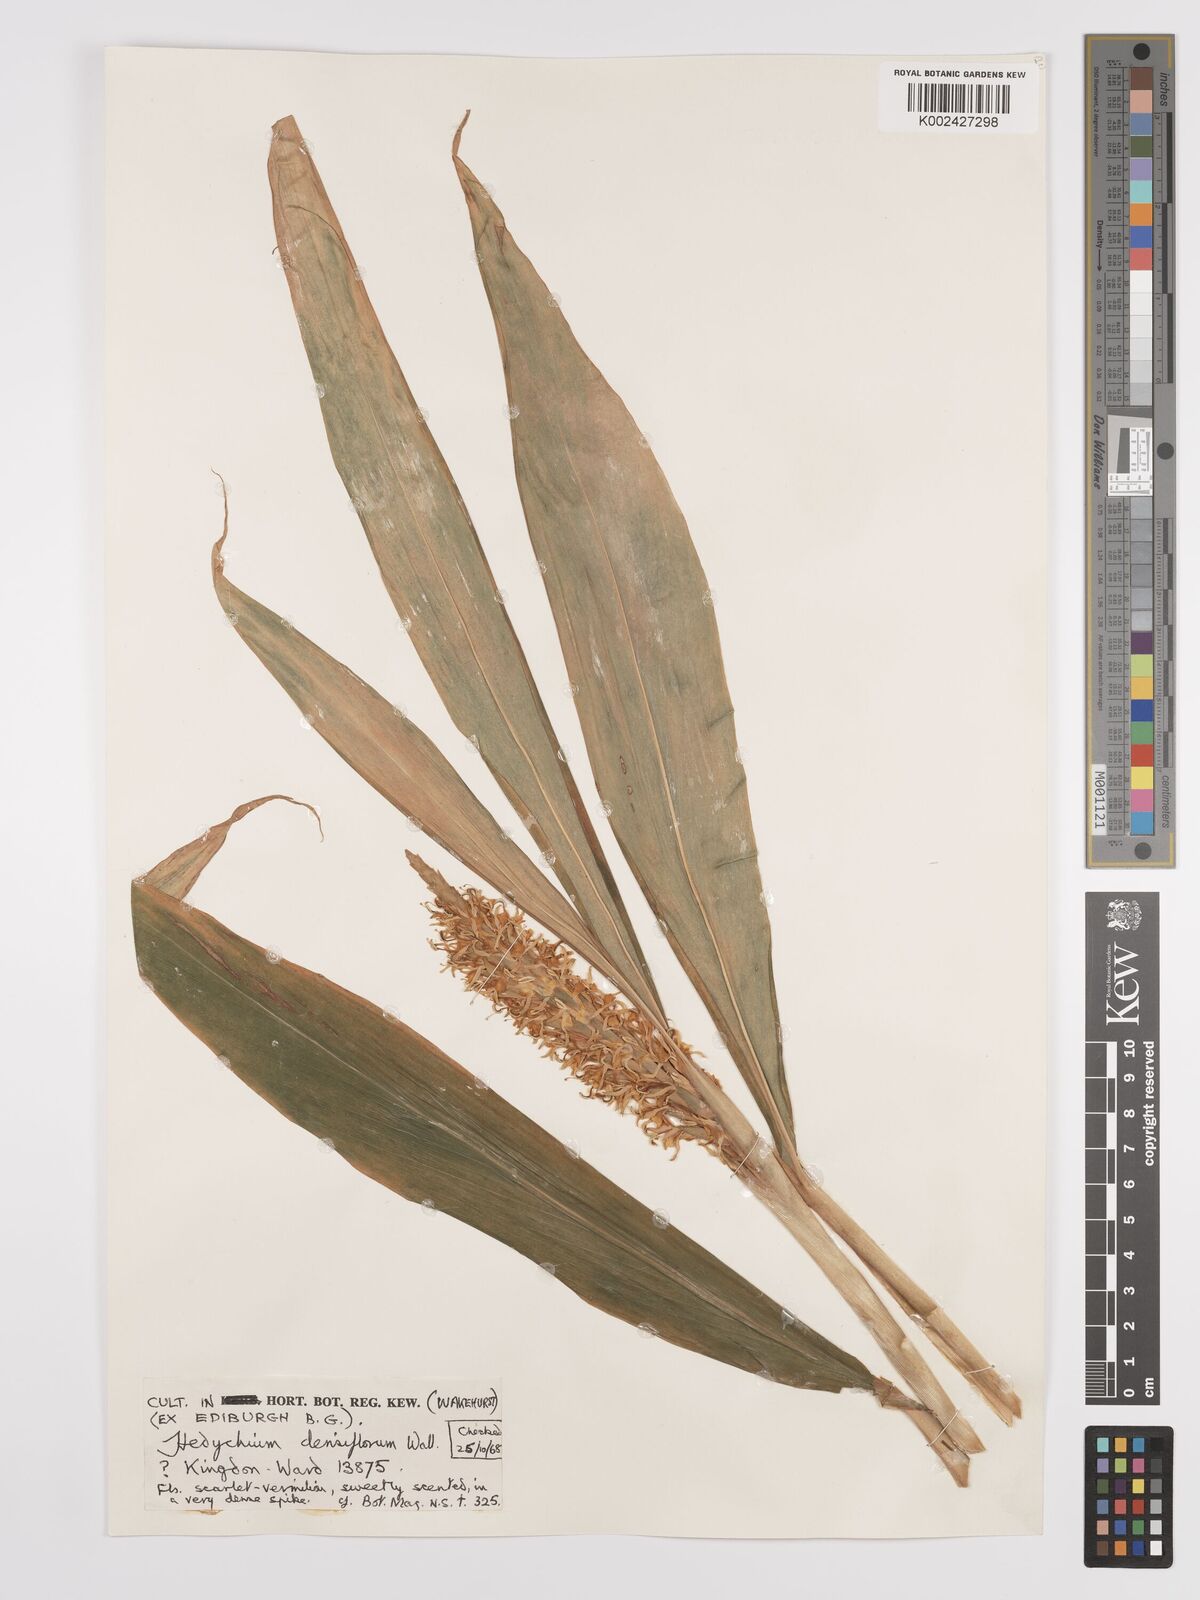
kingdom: Plantae
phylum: Tracheophyta
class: Liliopsida
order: Zingiberales
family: Zingiberaceae
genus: Hedychium
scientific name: Hedychium densiflorum
